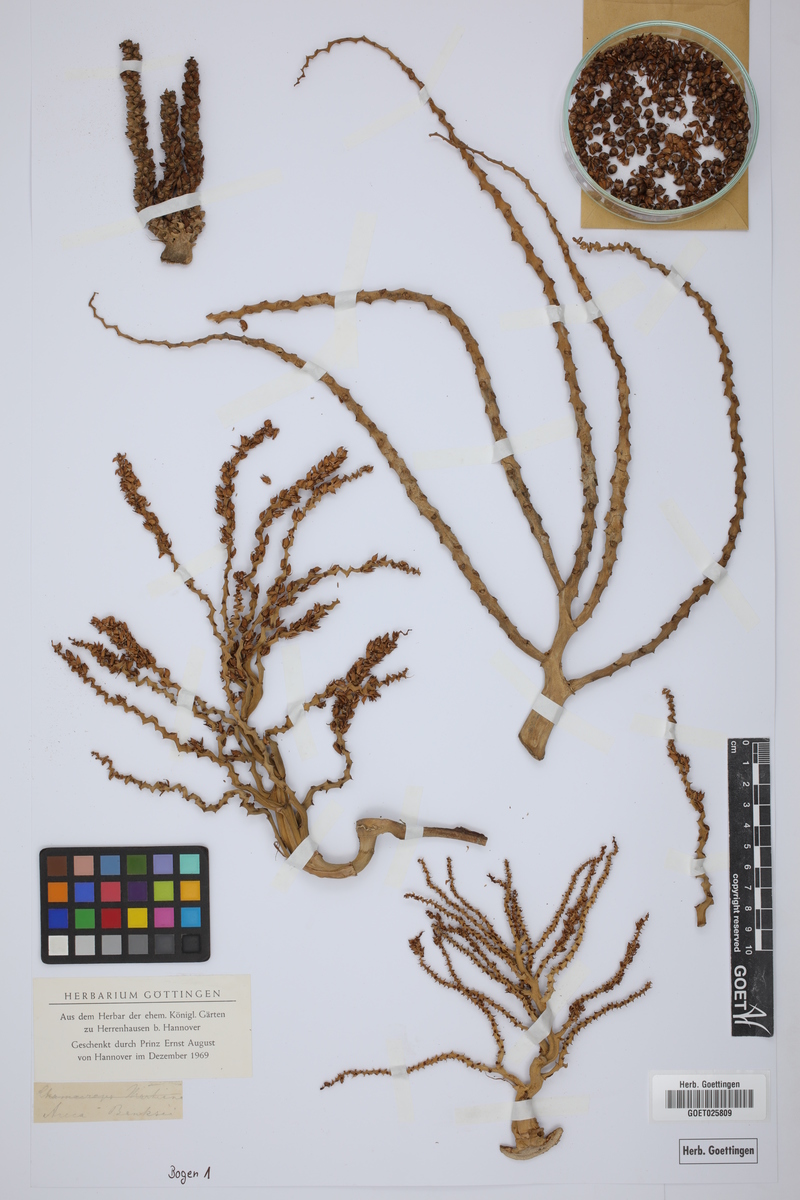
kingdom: Plantae
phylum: Tracheophyta
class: Liliopsida
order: Arecales
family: Arecaceae
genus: Rhopalostylis
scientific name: Rhopalostylis baueri
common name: Norfolk island palm
